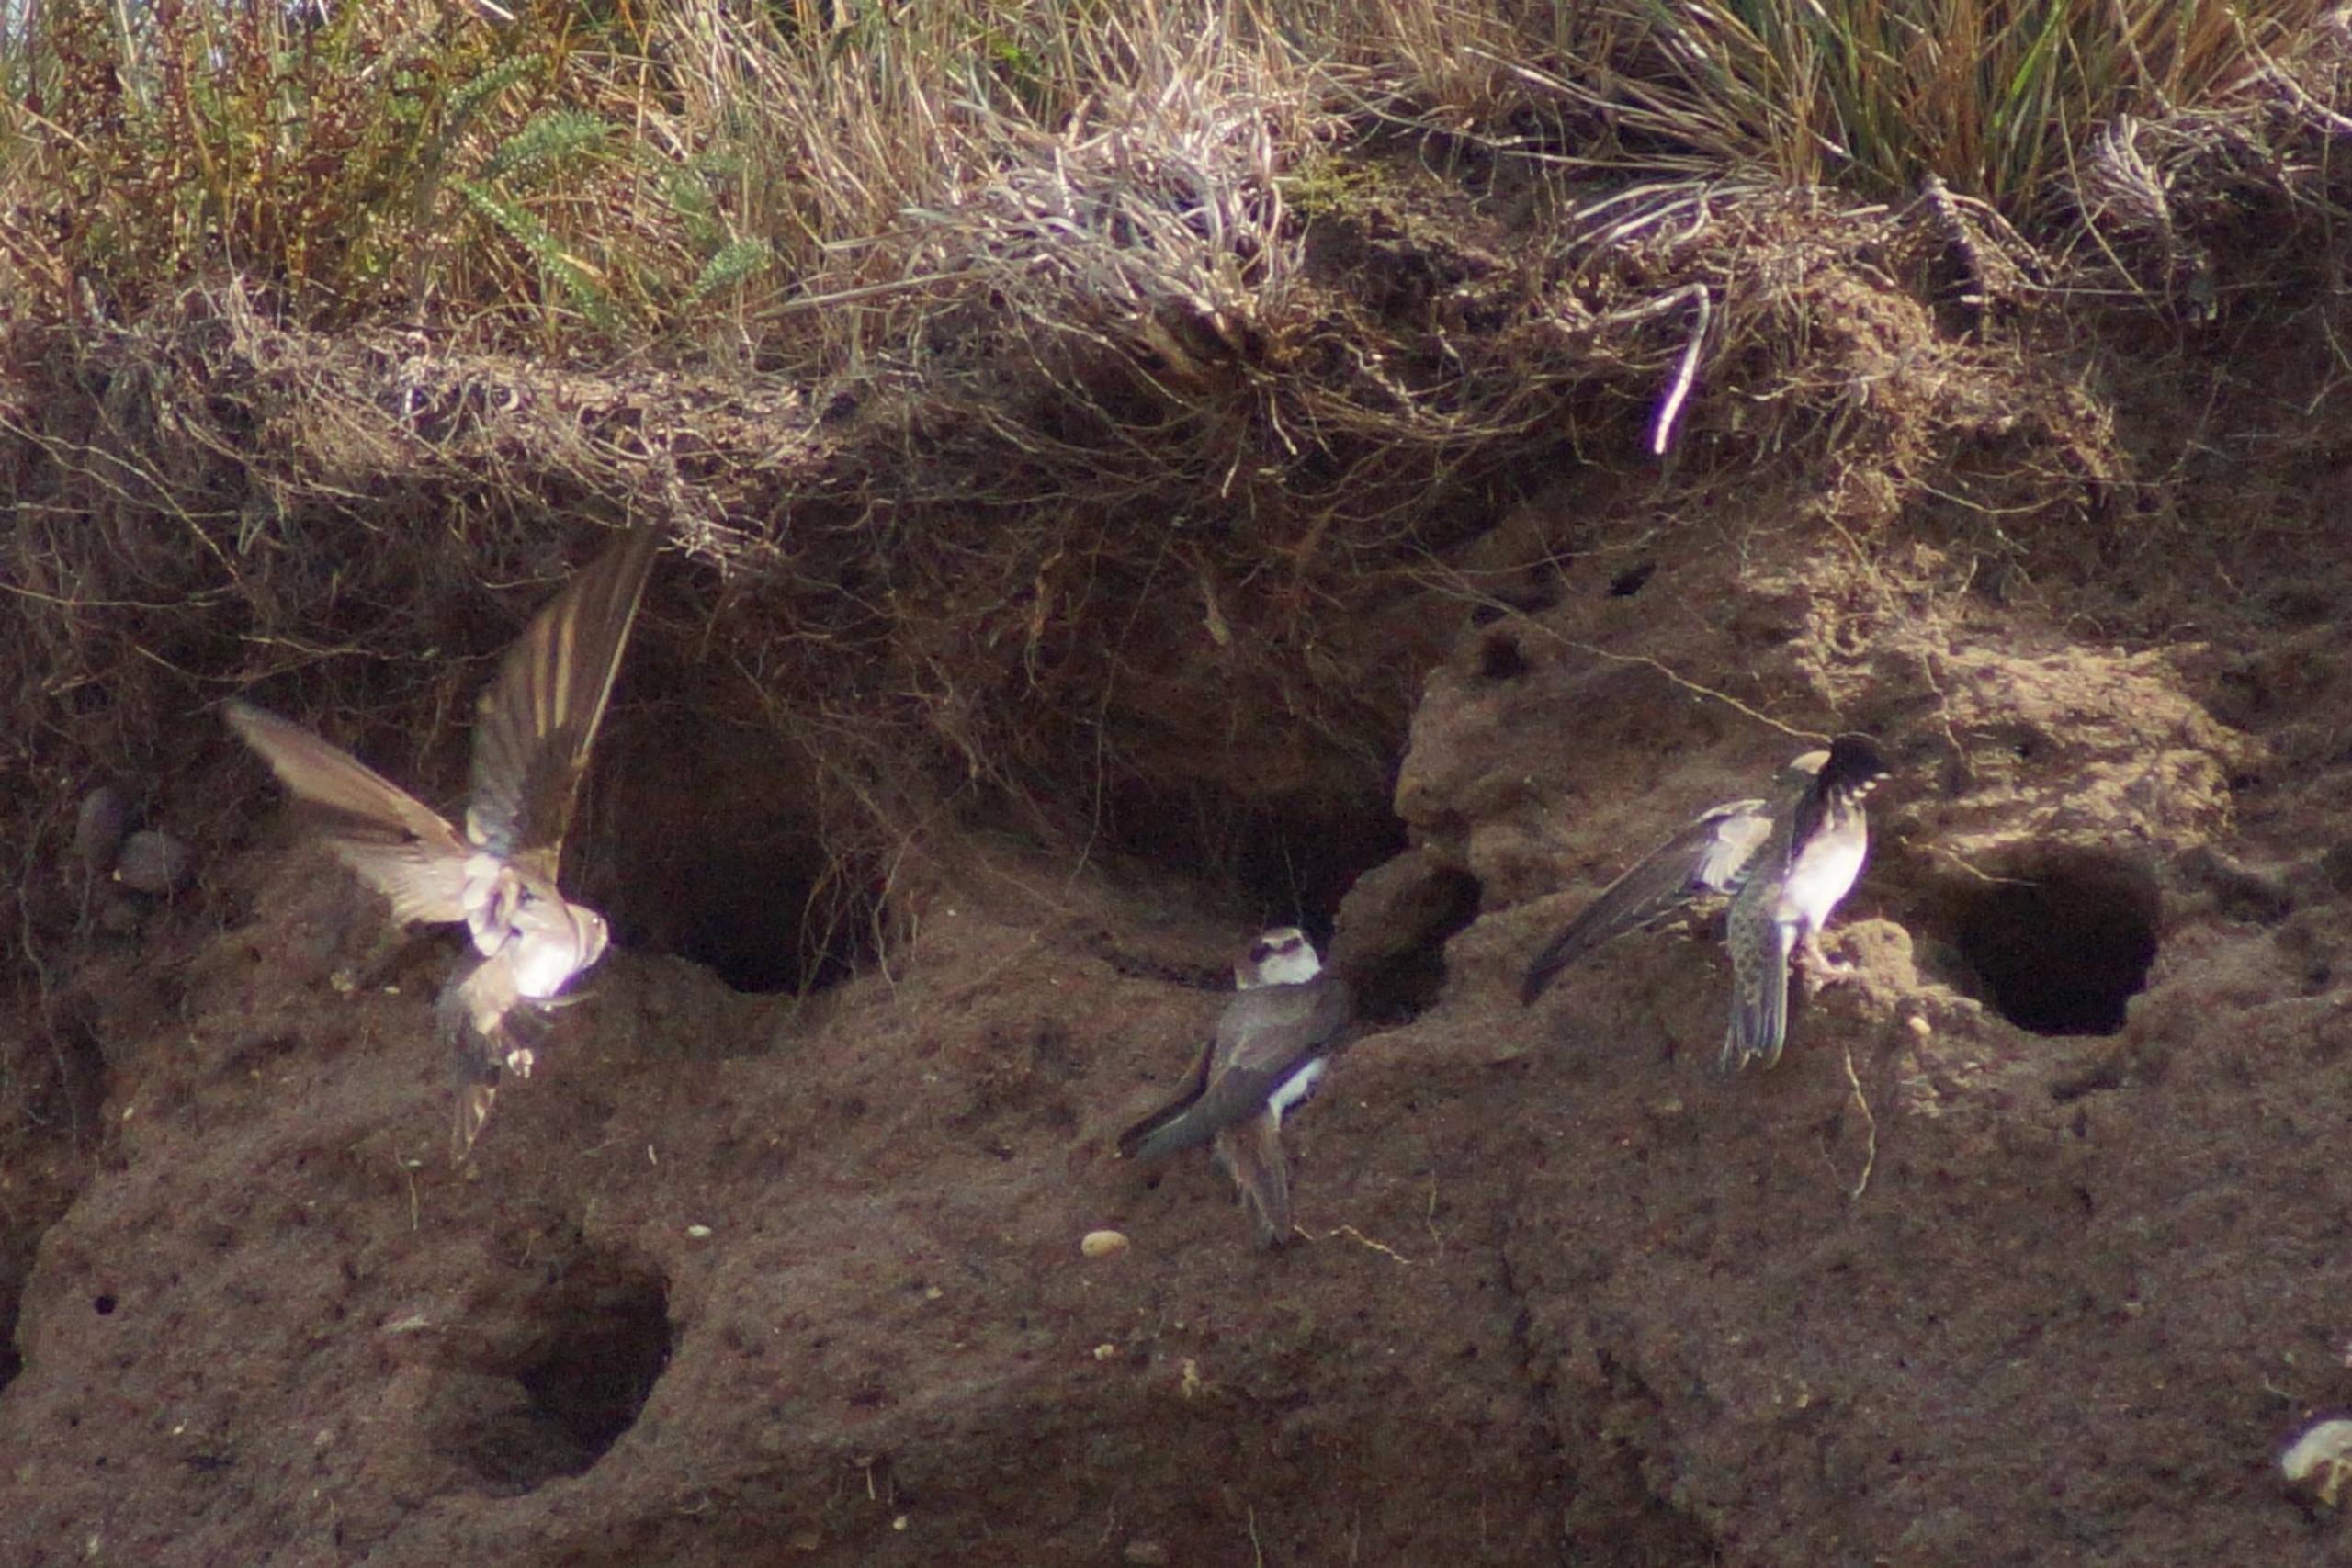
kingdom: Animalia
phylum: Chordata
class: Aves
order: Passeriformes
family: Hirundinidae
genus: Riparia
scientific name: Riparia riparia
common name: Digesvale
